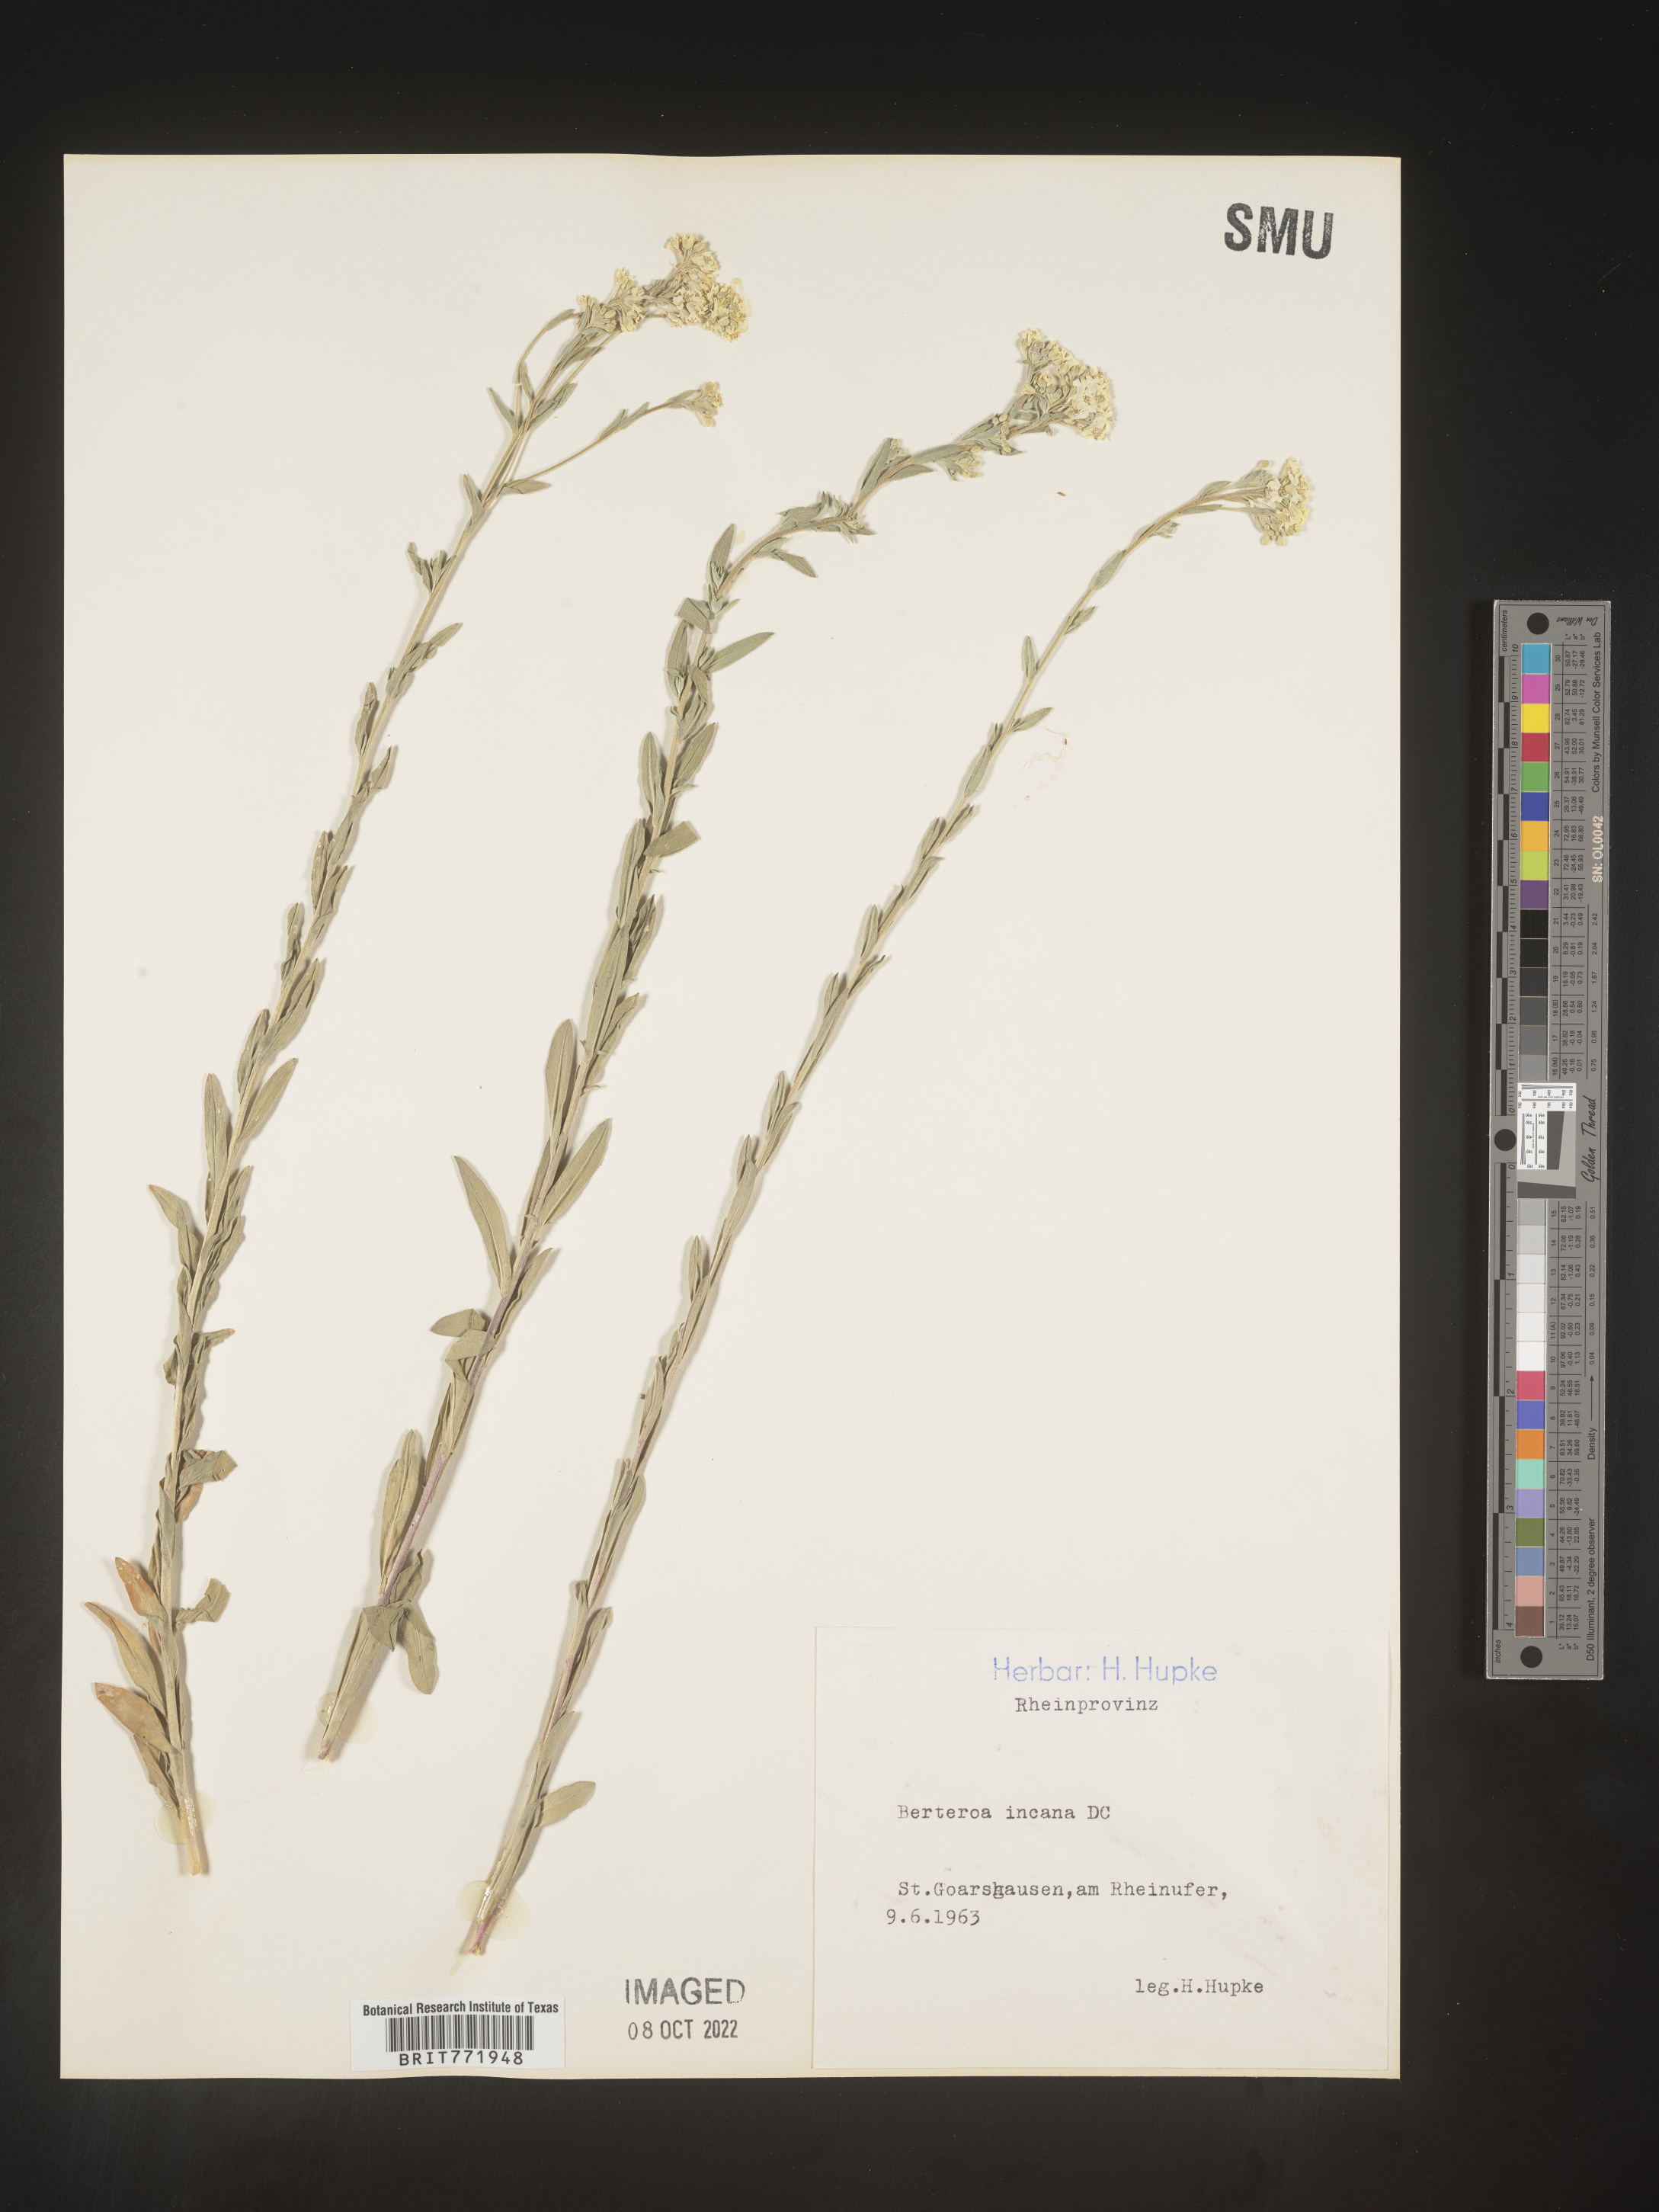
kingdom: Plantae
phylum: Tracheophyta
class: Magnoliopsida
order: Brassicales
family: Brassicaceae
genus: Berteroa
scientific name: Berteroa
